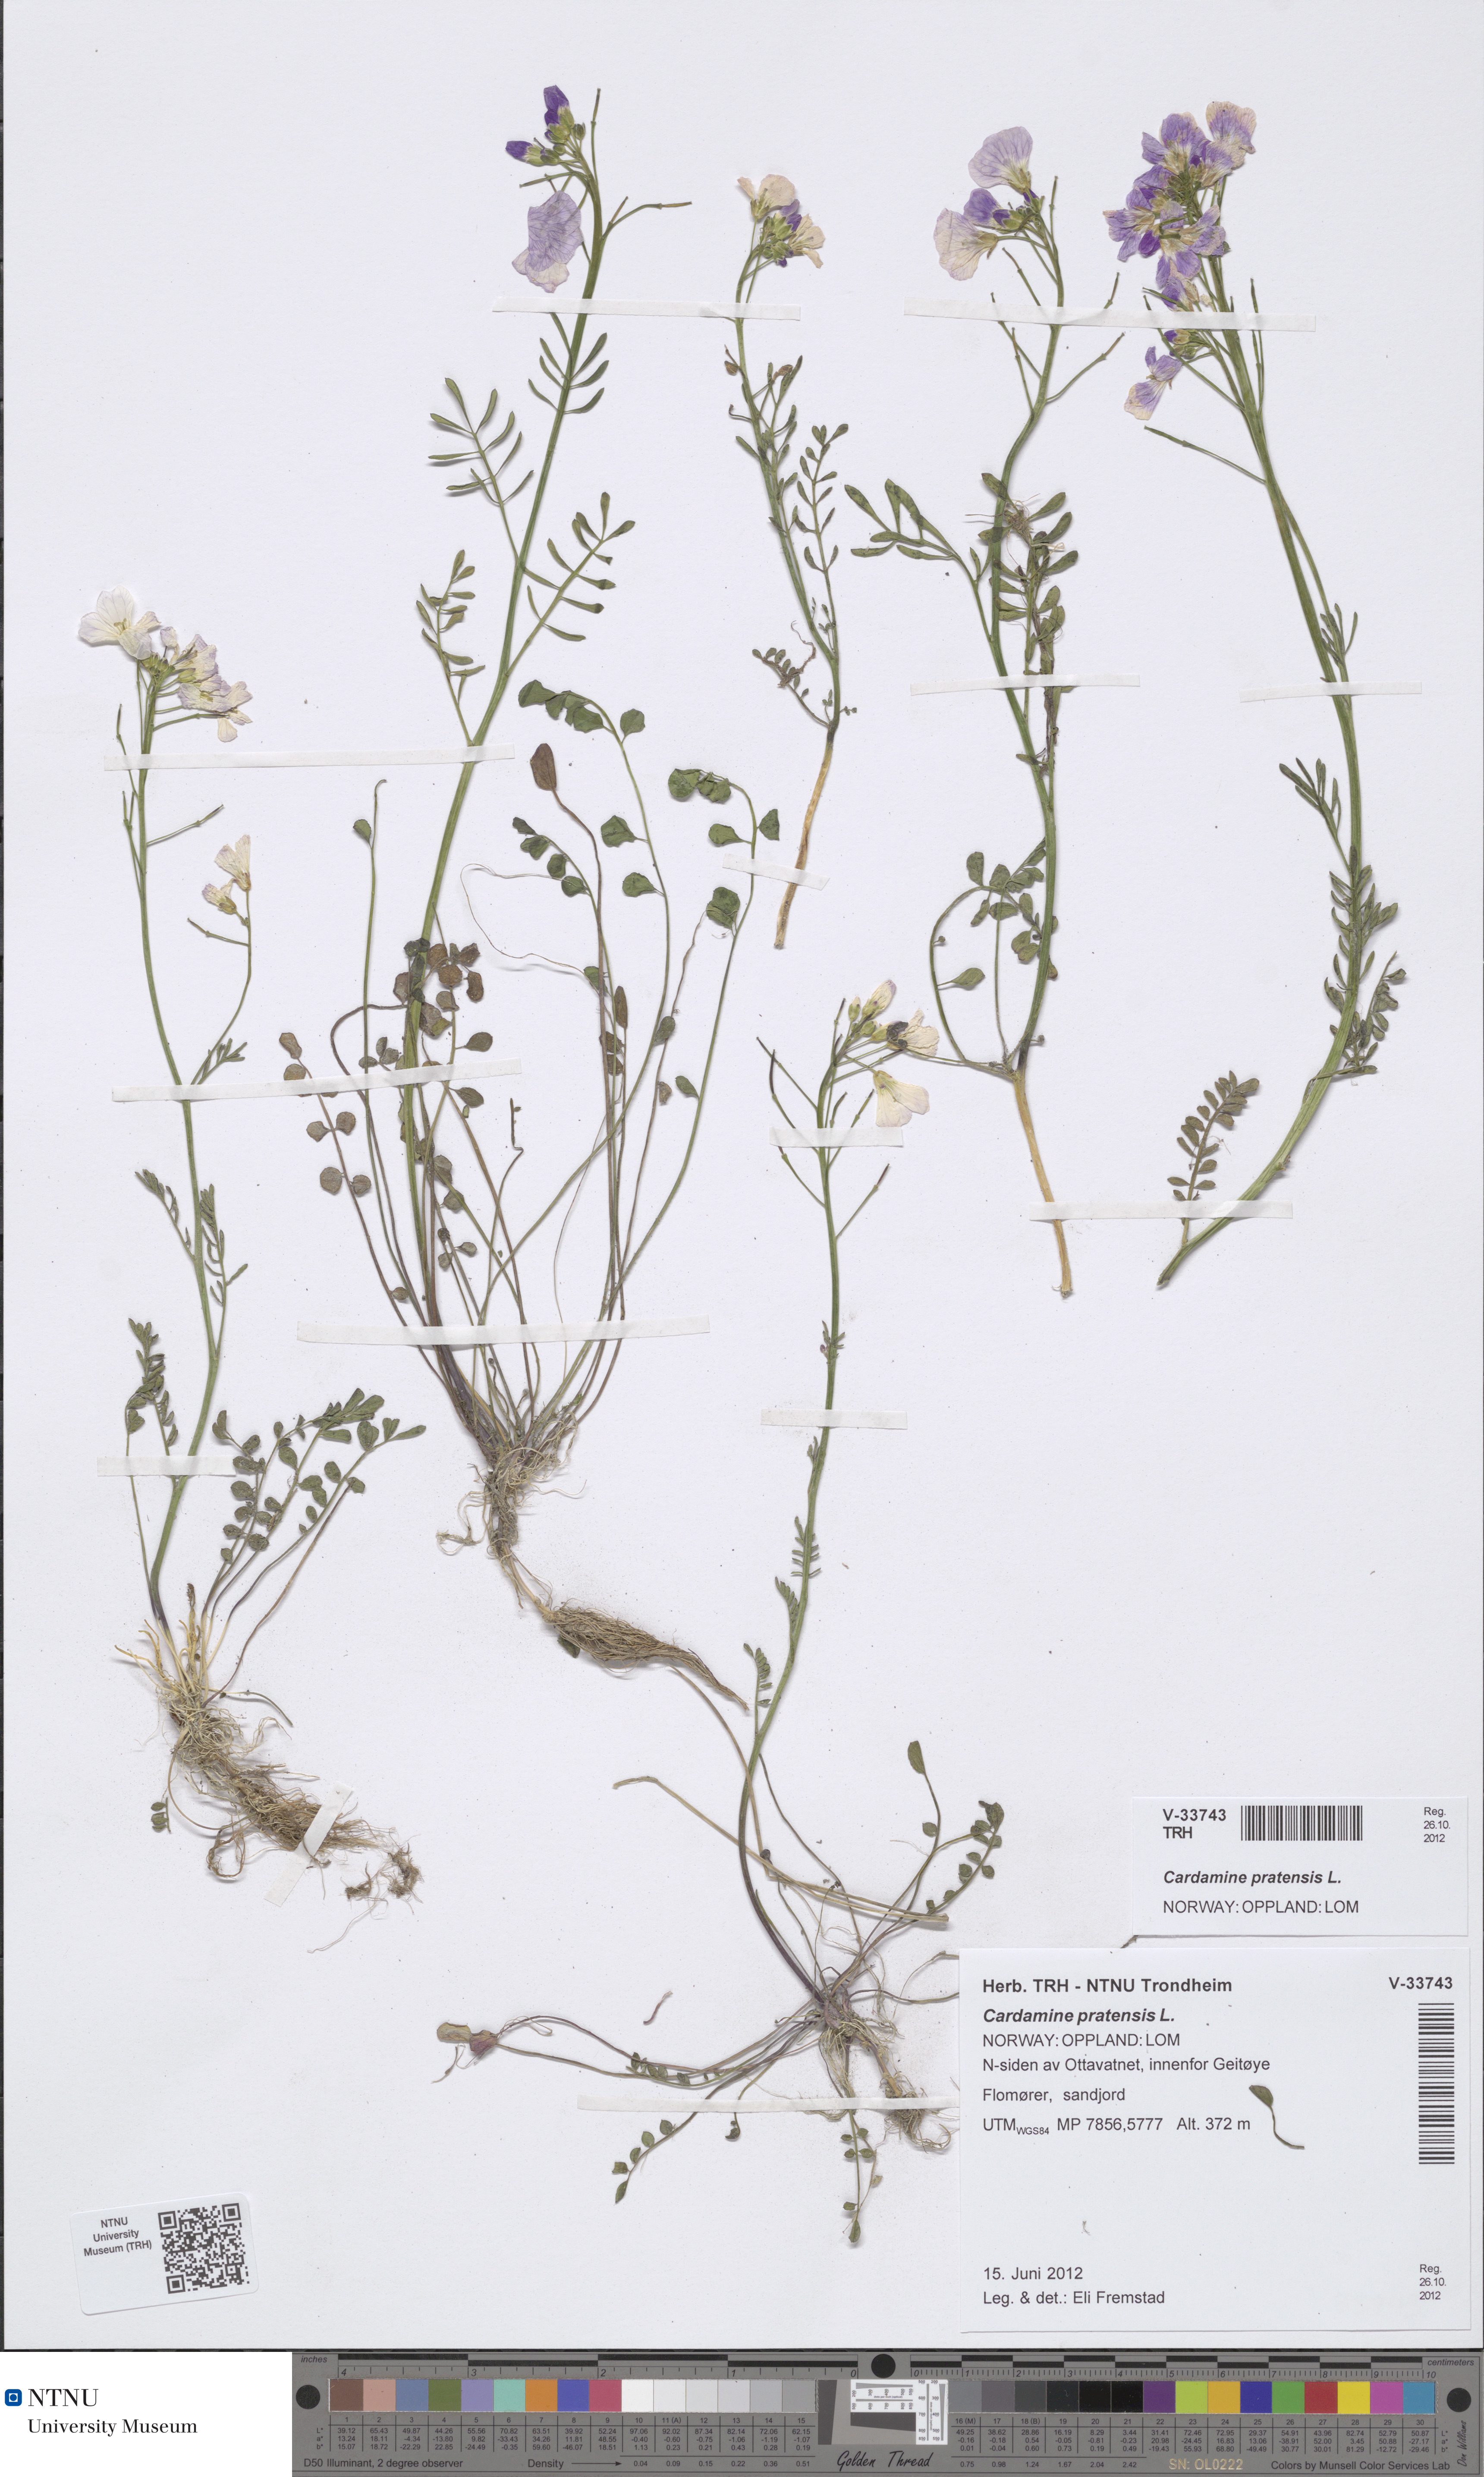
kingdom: Plantae
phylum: Tracheophyta
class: Magnoliopsida
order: Brassicales
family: Brassicaceae
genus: Cardamine
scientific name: Cardamine dentata
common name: Toothed bittercress
